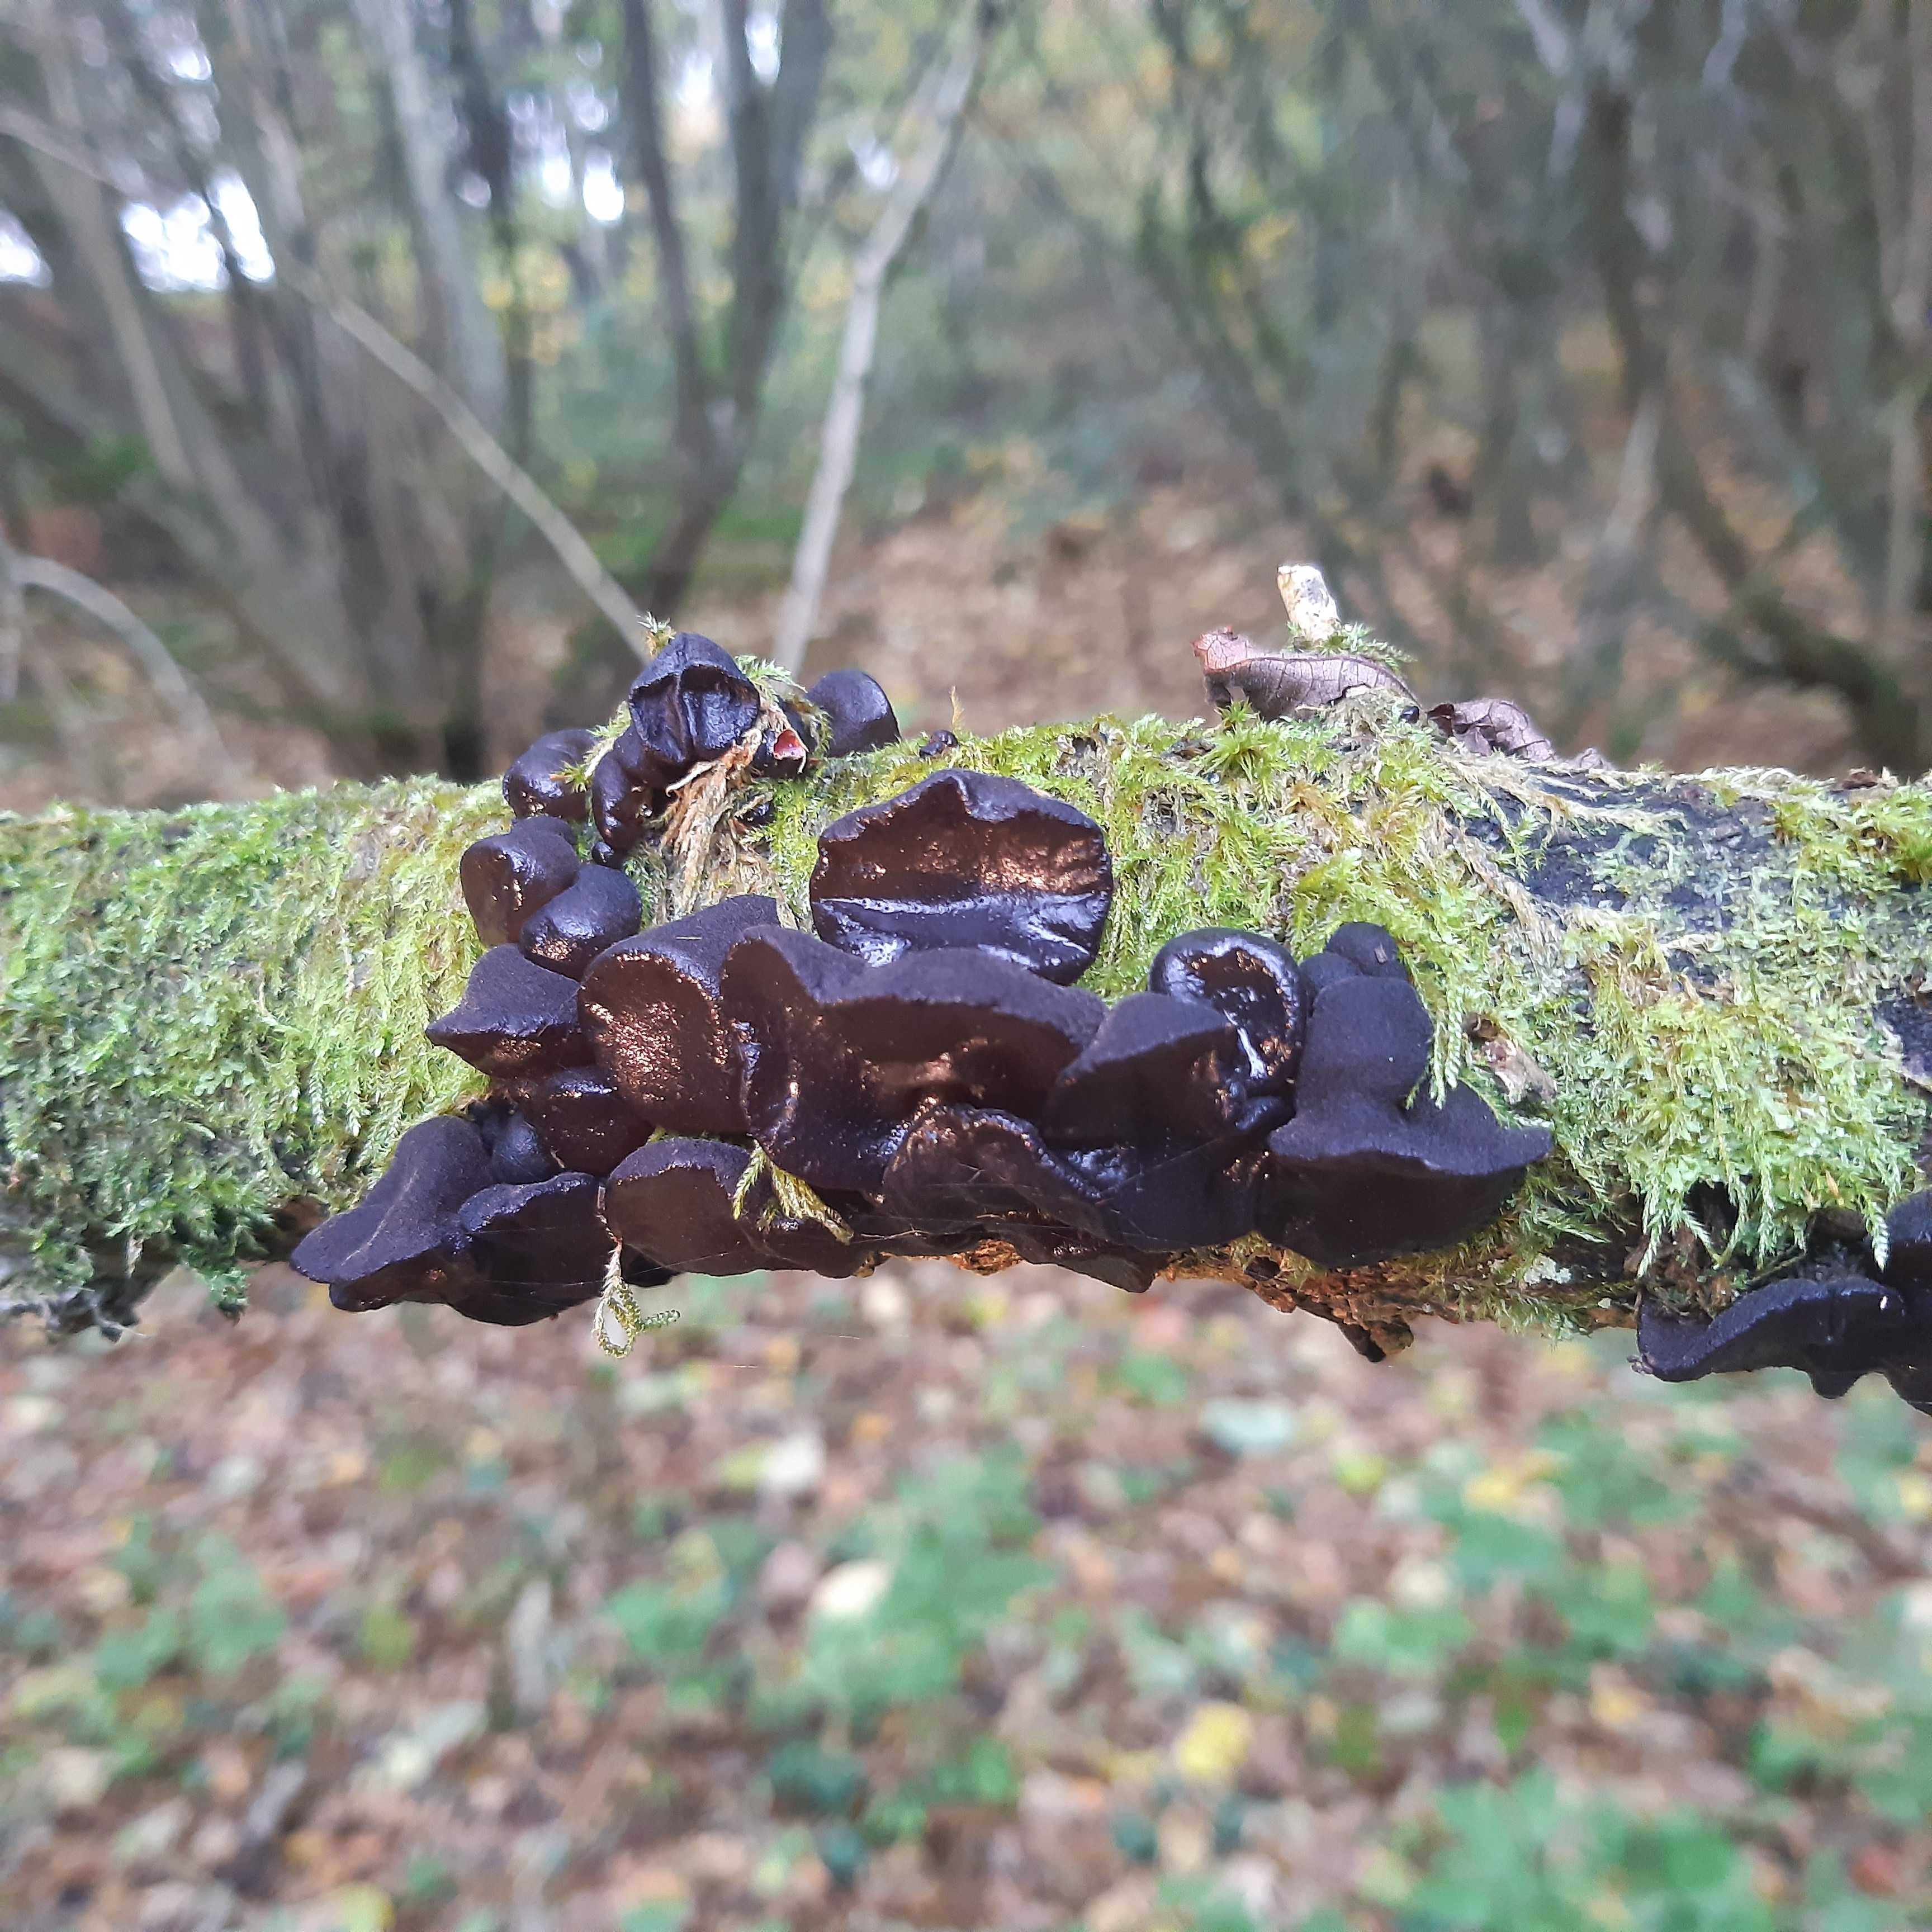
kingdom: Fungi
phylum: Basidiomycota
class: Agaricomycetes
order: Auriculariales
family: Auriculariaceae
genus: Exidia
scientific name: Exidia glandulosa
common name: ege-bævretop
